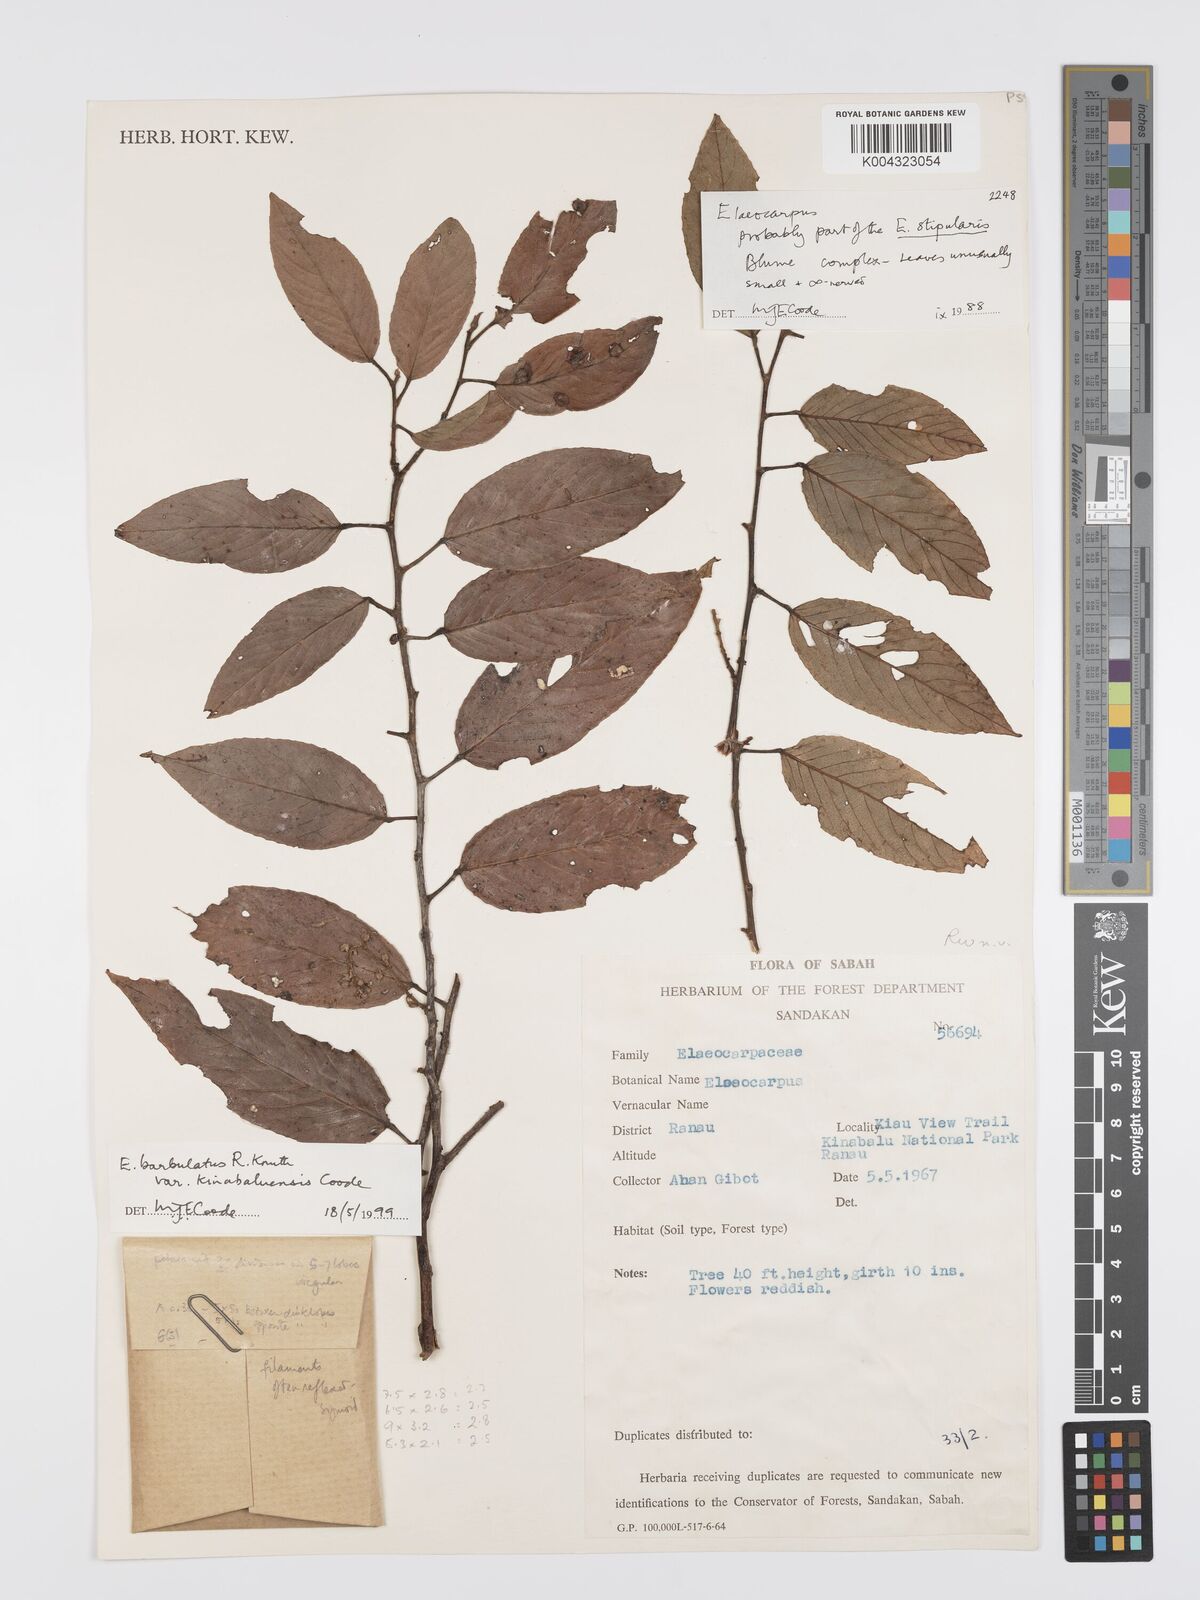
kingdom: Plantae
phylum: Tracheophyta
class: Magnoliopsida
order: Oxalidales
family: Elaeocarpaceae
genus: Elaeocarpus
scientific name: Elaeocarpus barbulatus
